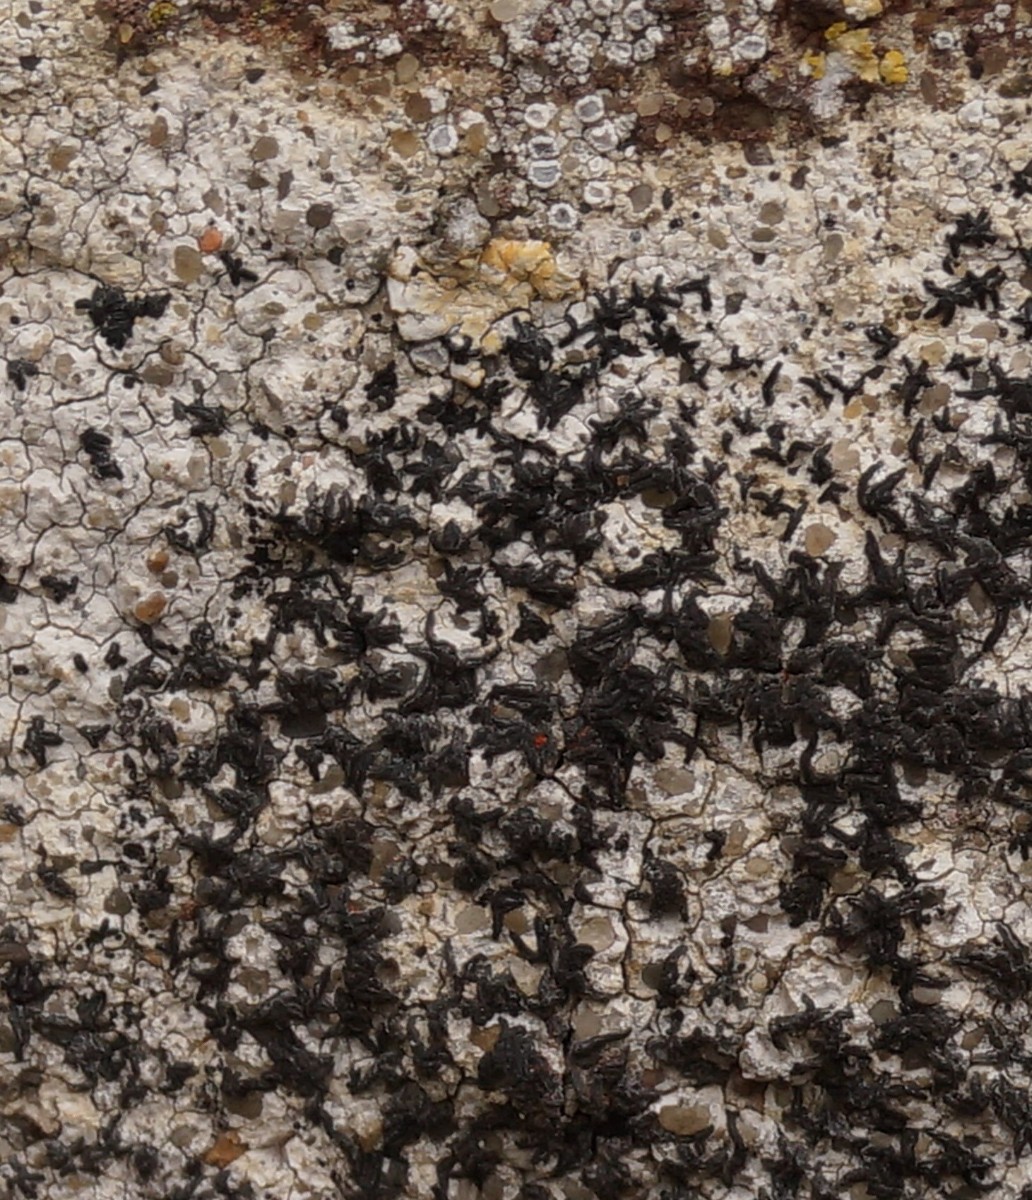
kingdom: Fungi
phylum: Ascomycota
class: Arthoniomycetes
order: Arthoniales
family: Arthoniaceae
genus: Arthonia
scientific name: Arthonia calcarea
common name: kalk-bogstavlav
